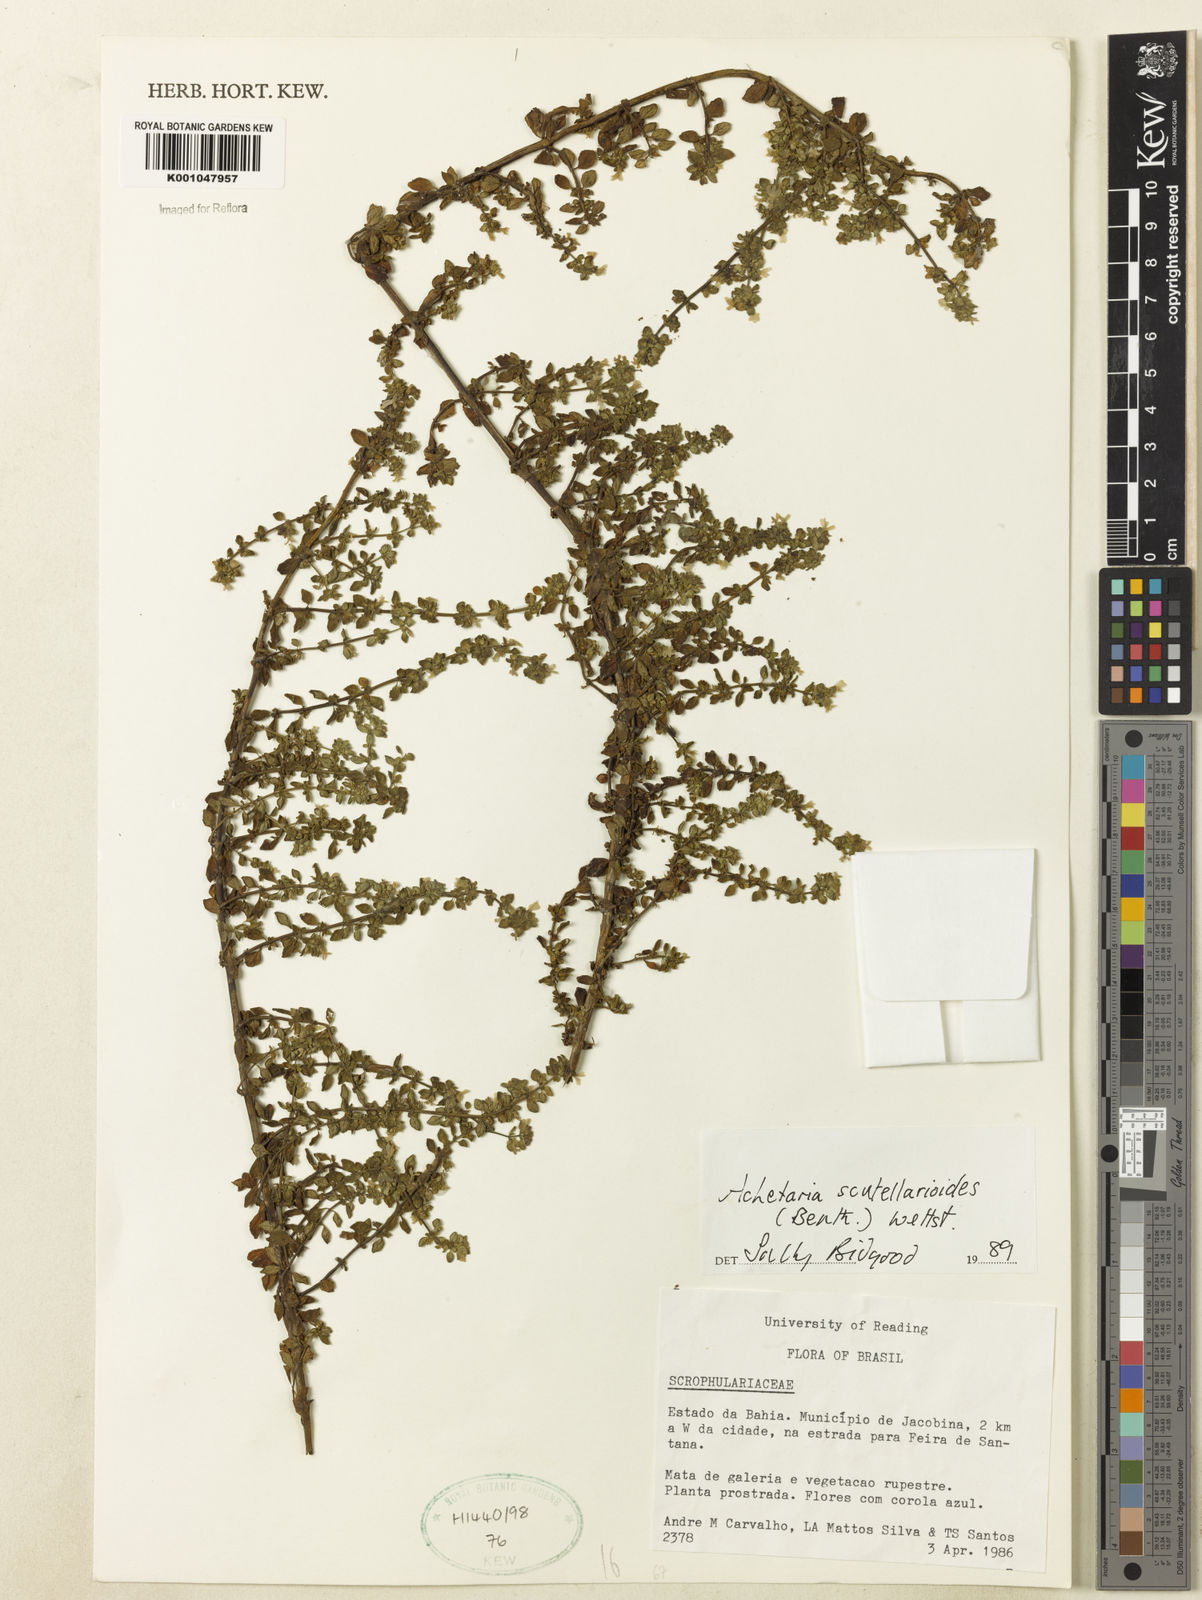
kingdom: Plantae
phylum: Tracheophyta
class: Magnoliopsida
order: Lamiales
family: Plantaginaceae
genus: Matourea
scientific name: Matourea scutellarioides
